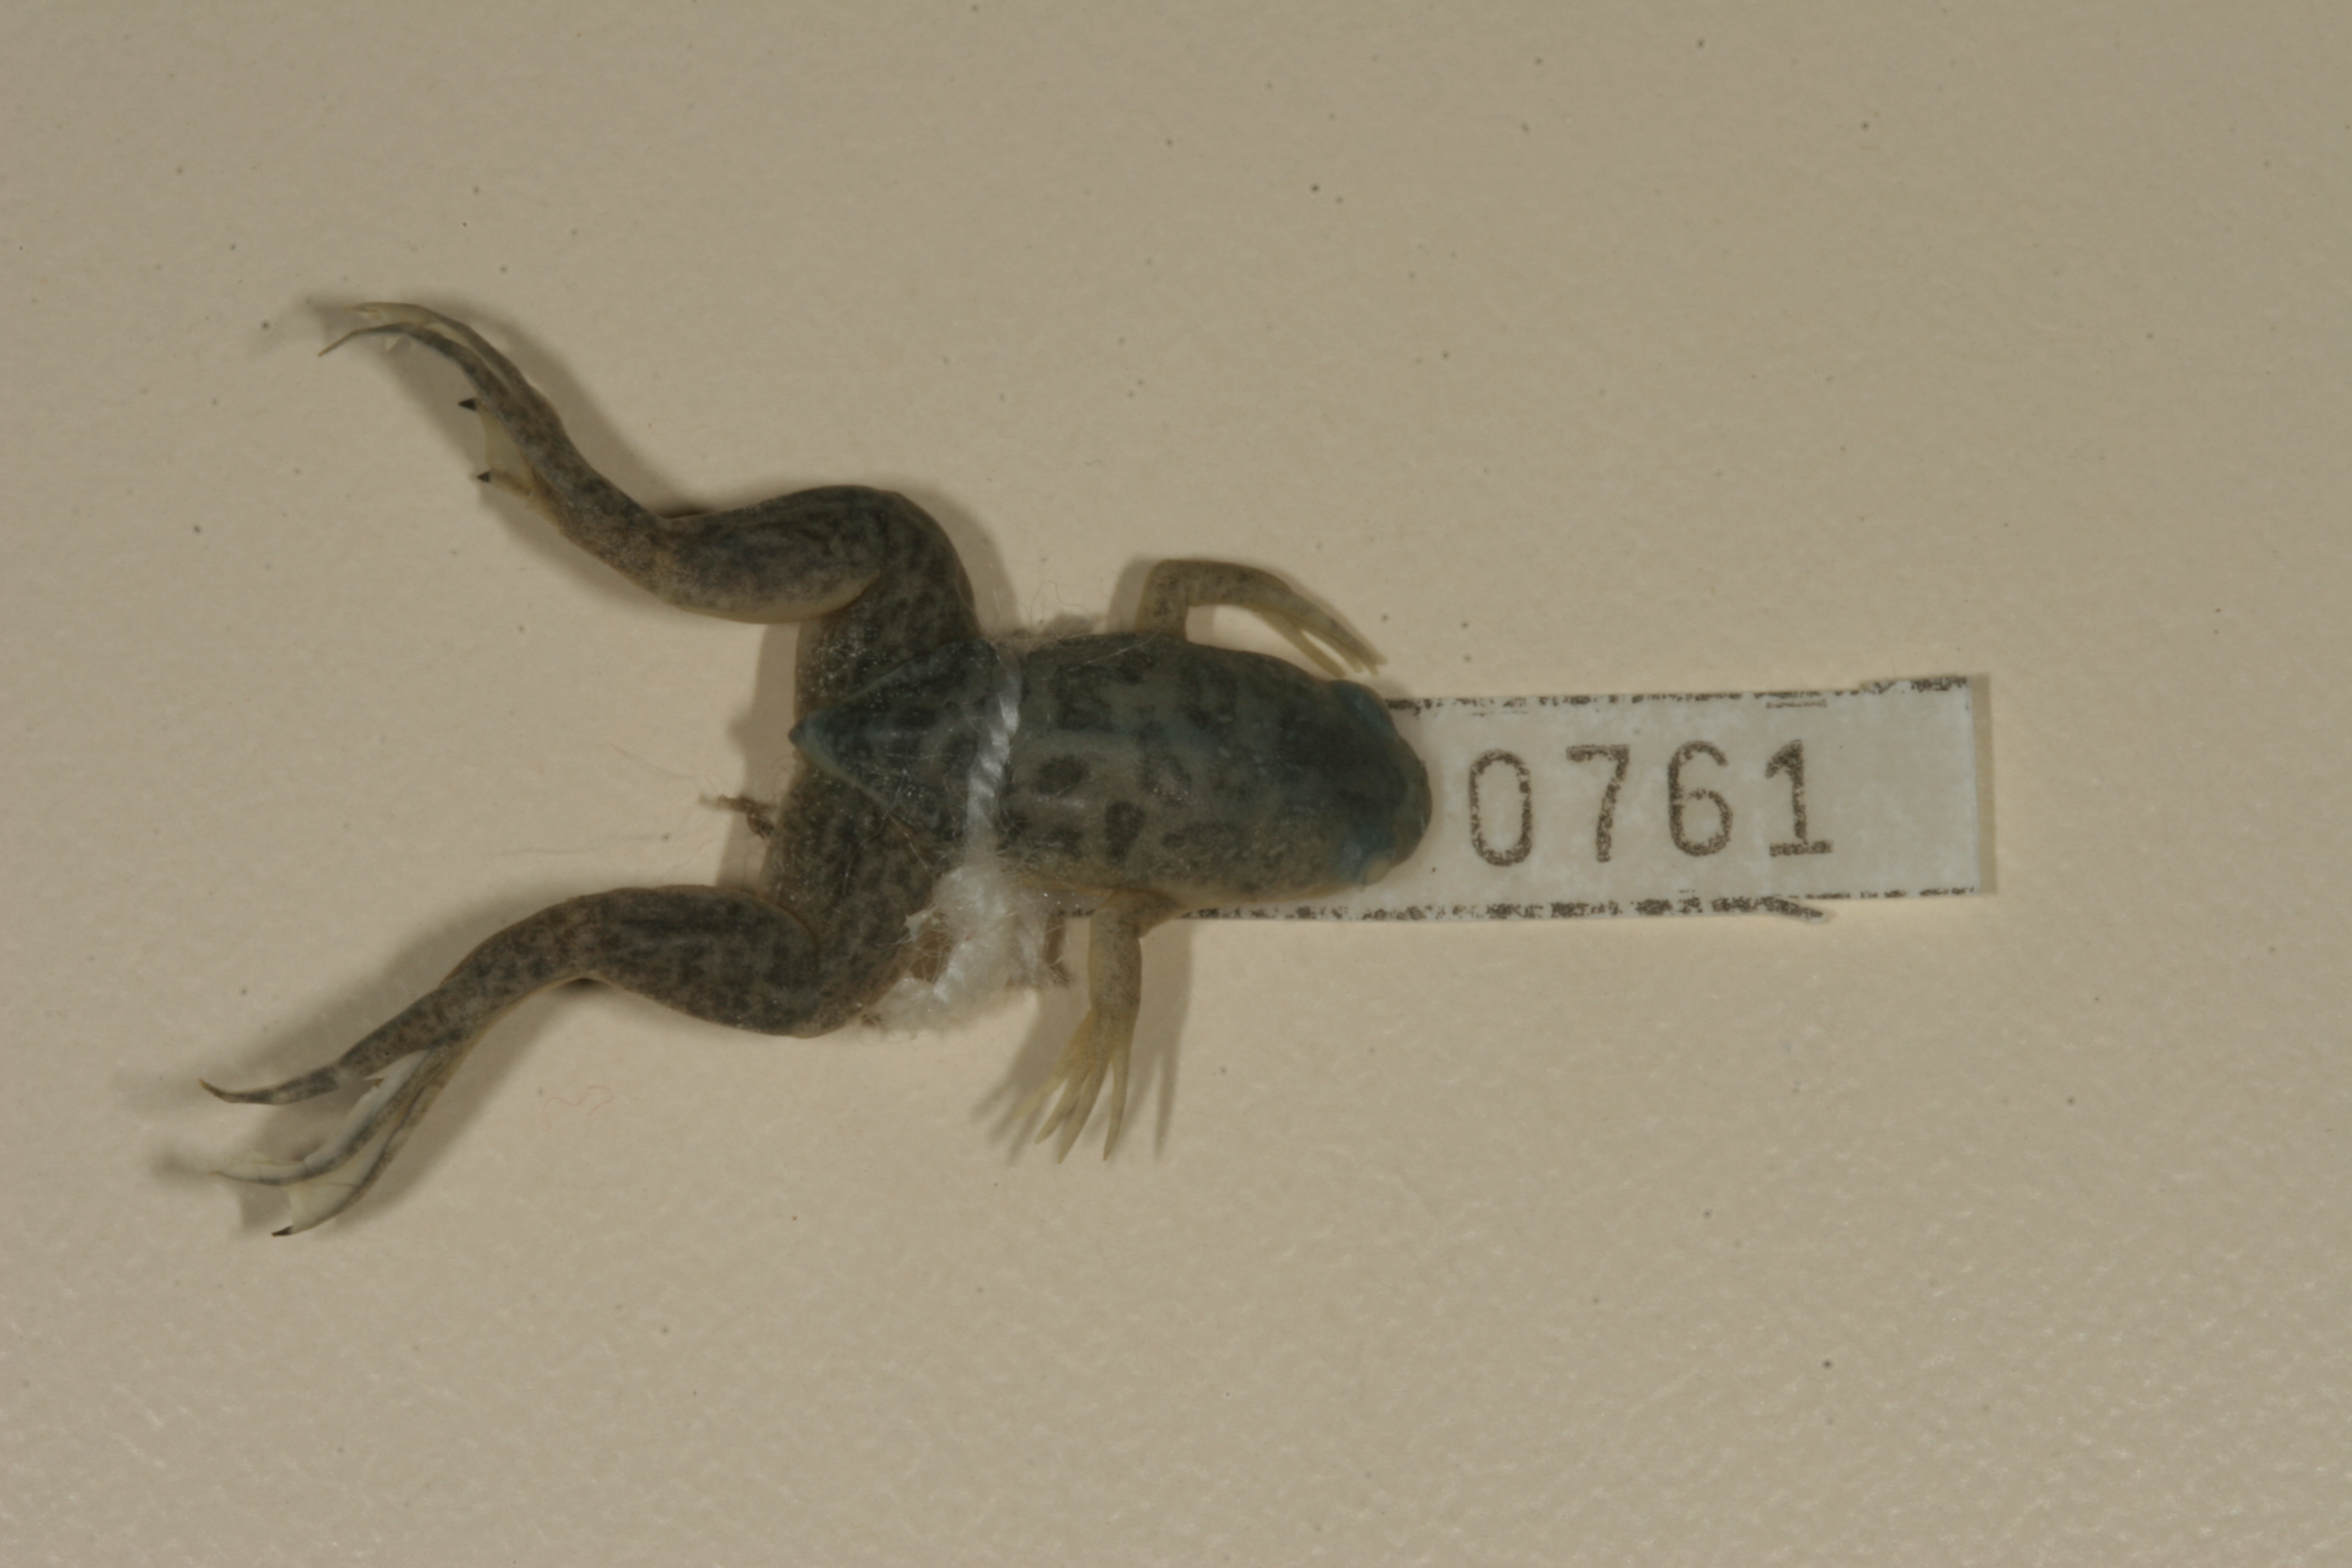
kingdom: Animalia
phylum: Chordata
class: Amphibia
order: Anura
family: Pipidae
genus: Xenopus
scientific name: Xenopus laevis
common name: African clawed frog
